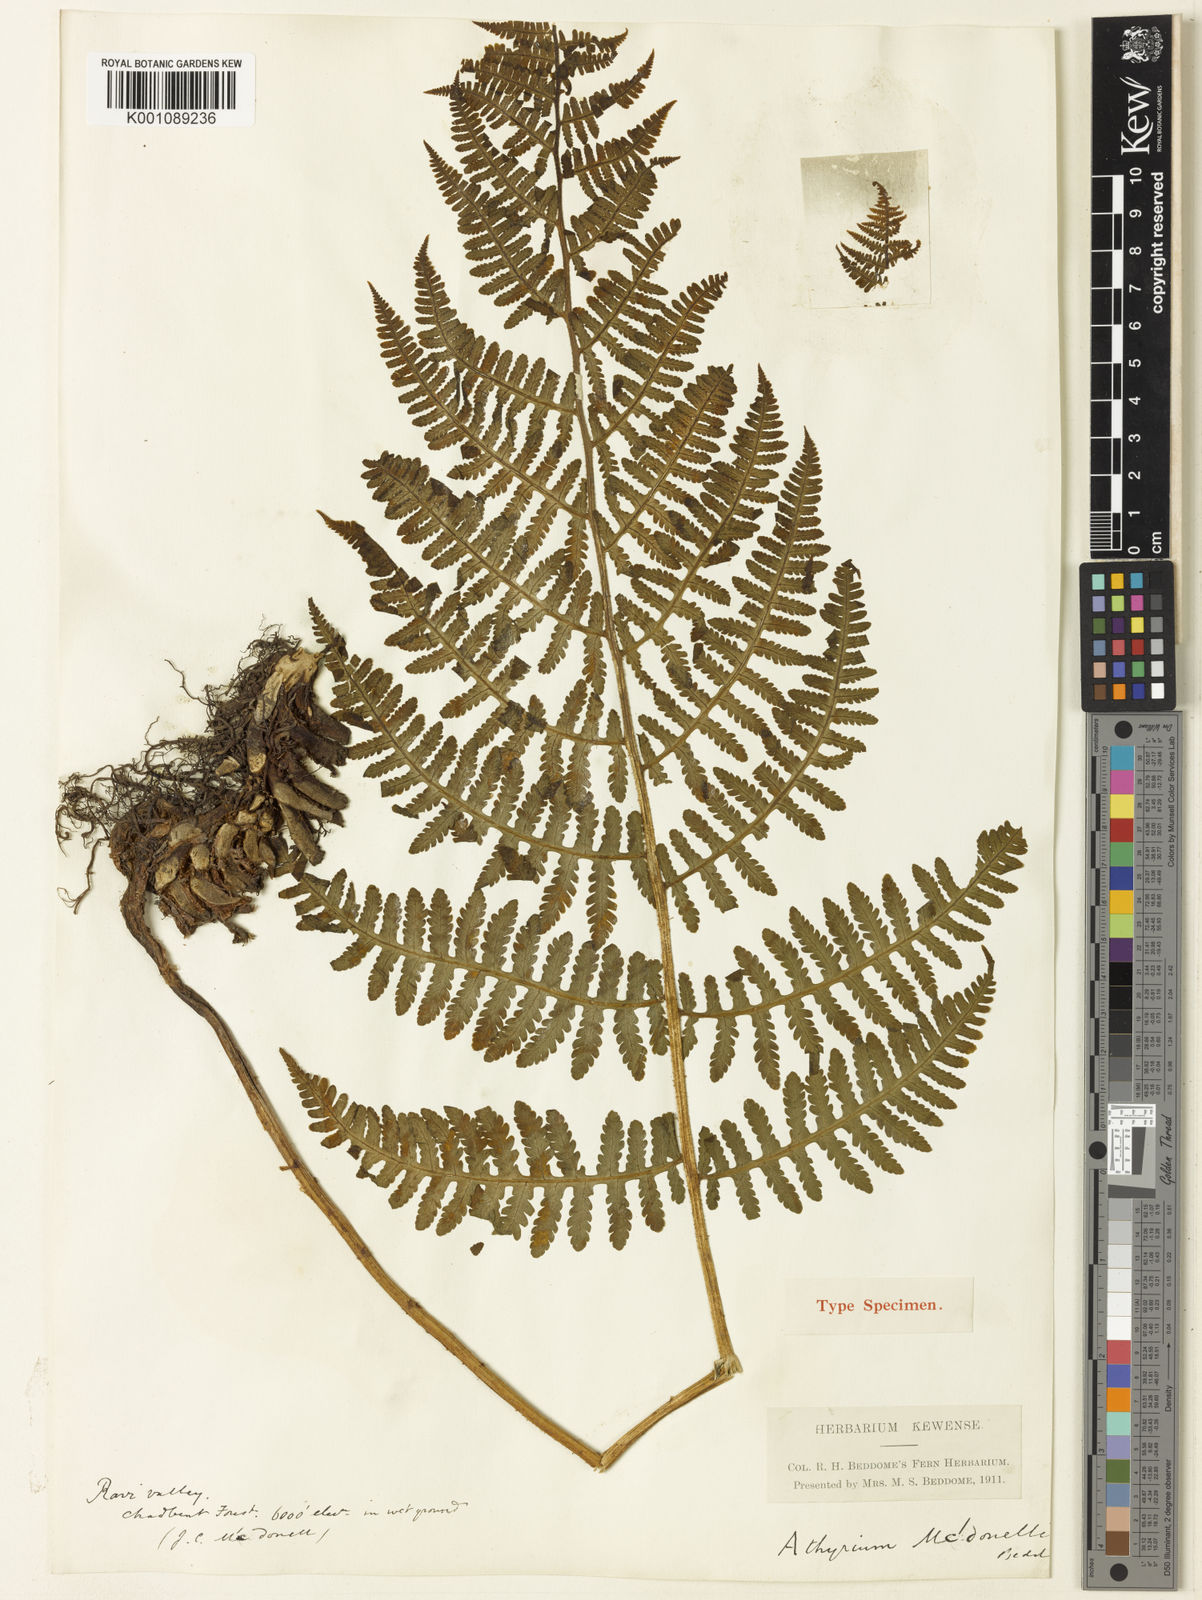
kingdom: Plantae
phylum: Tracheophyta
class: Polypodiopsida
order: Polypodiales
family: Athyriaceae
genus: Deparia
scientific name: Deparia mcdonellii
